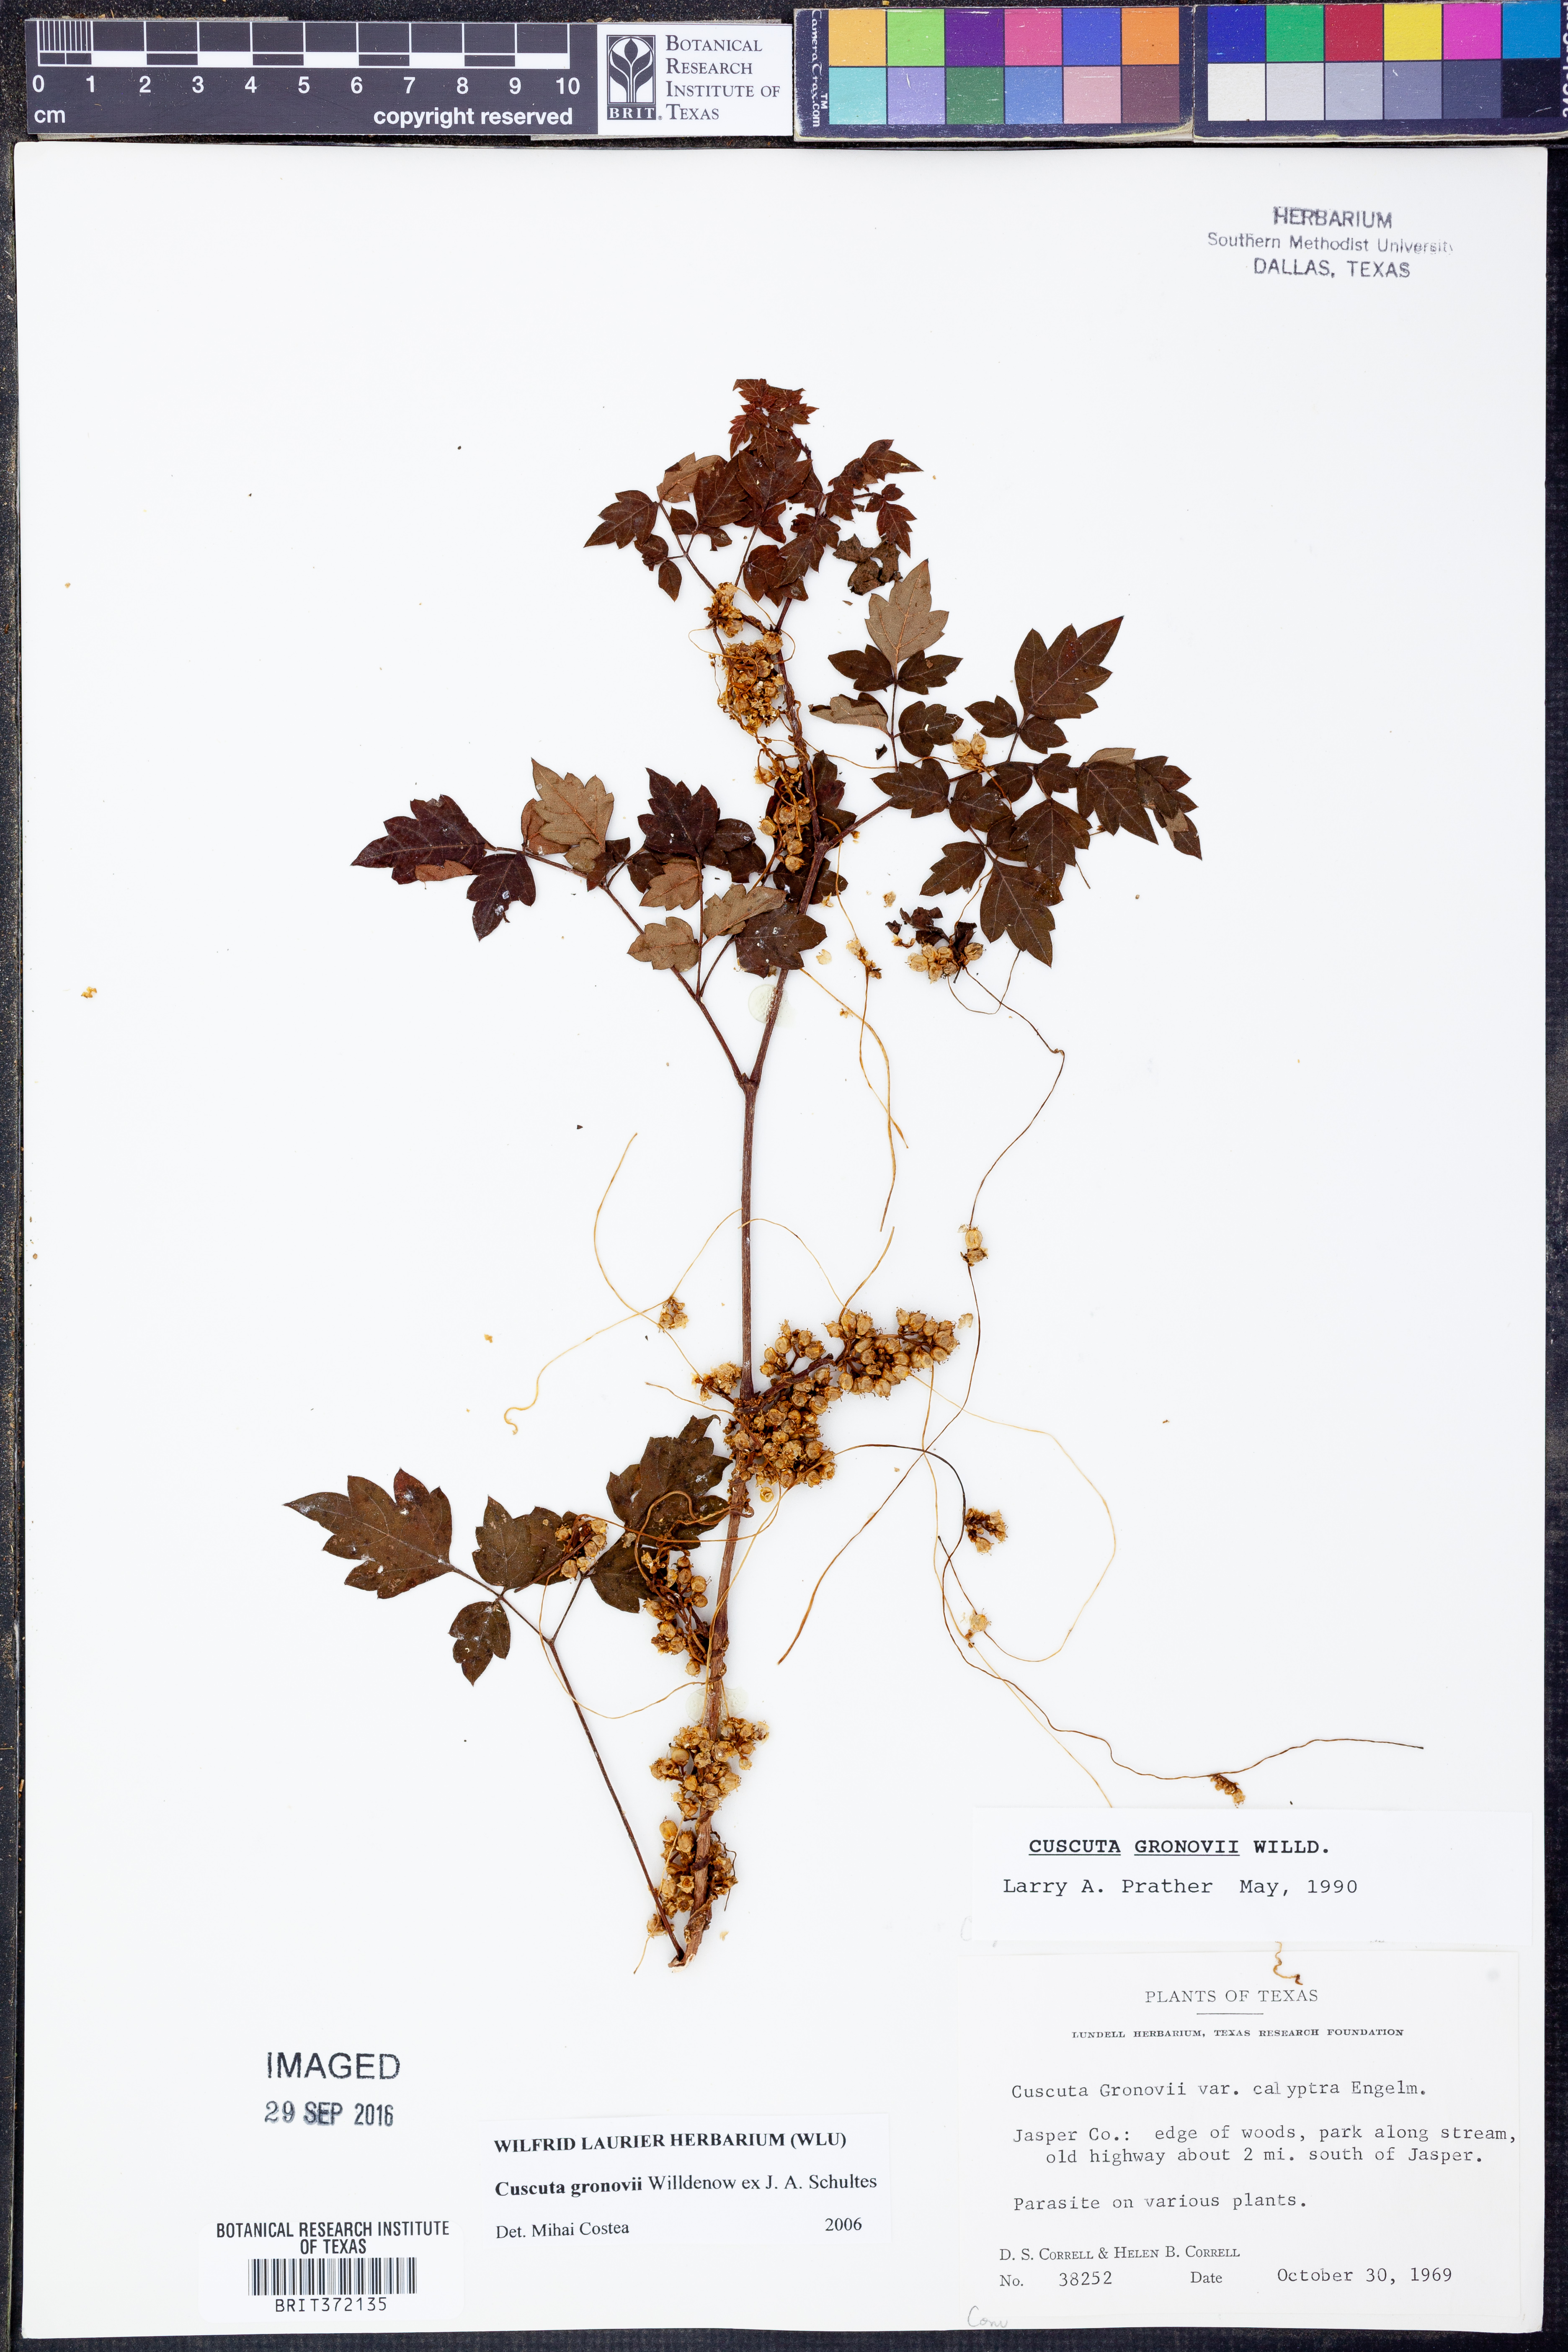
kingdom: Plantae
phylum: Tracheophyta
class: Magnoliopsida
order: Solanales
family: Convolvulaceae
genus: Cuscuta
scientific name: Cuscuta gronovii
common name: Common dodder
